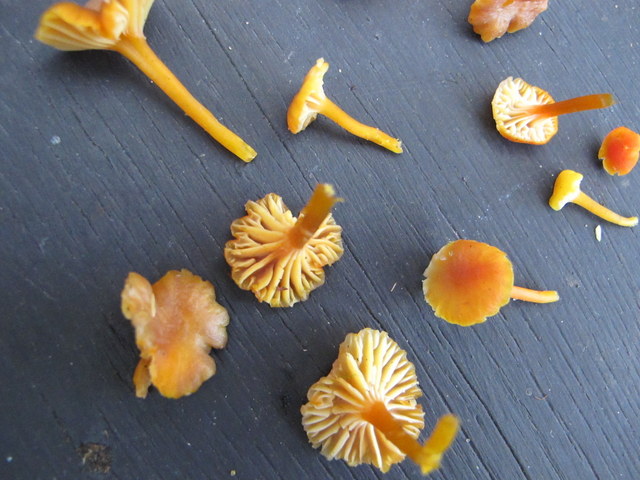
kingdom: Fungi
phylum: Basidiomycota
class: Agaricomycetes
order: Agaricales
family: Hygrophoraceae
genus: Hygrocybe
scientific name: Hygrocybe insipida
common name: liden vokshat
